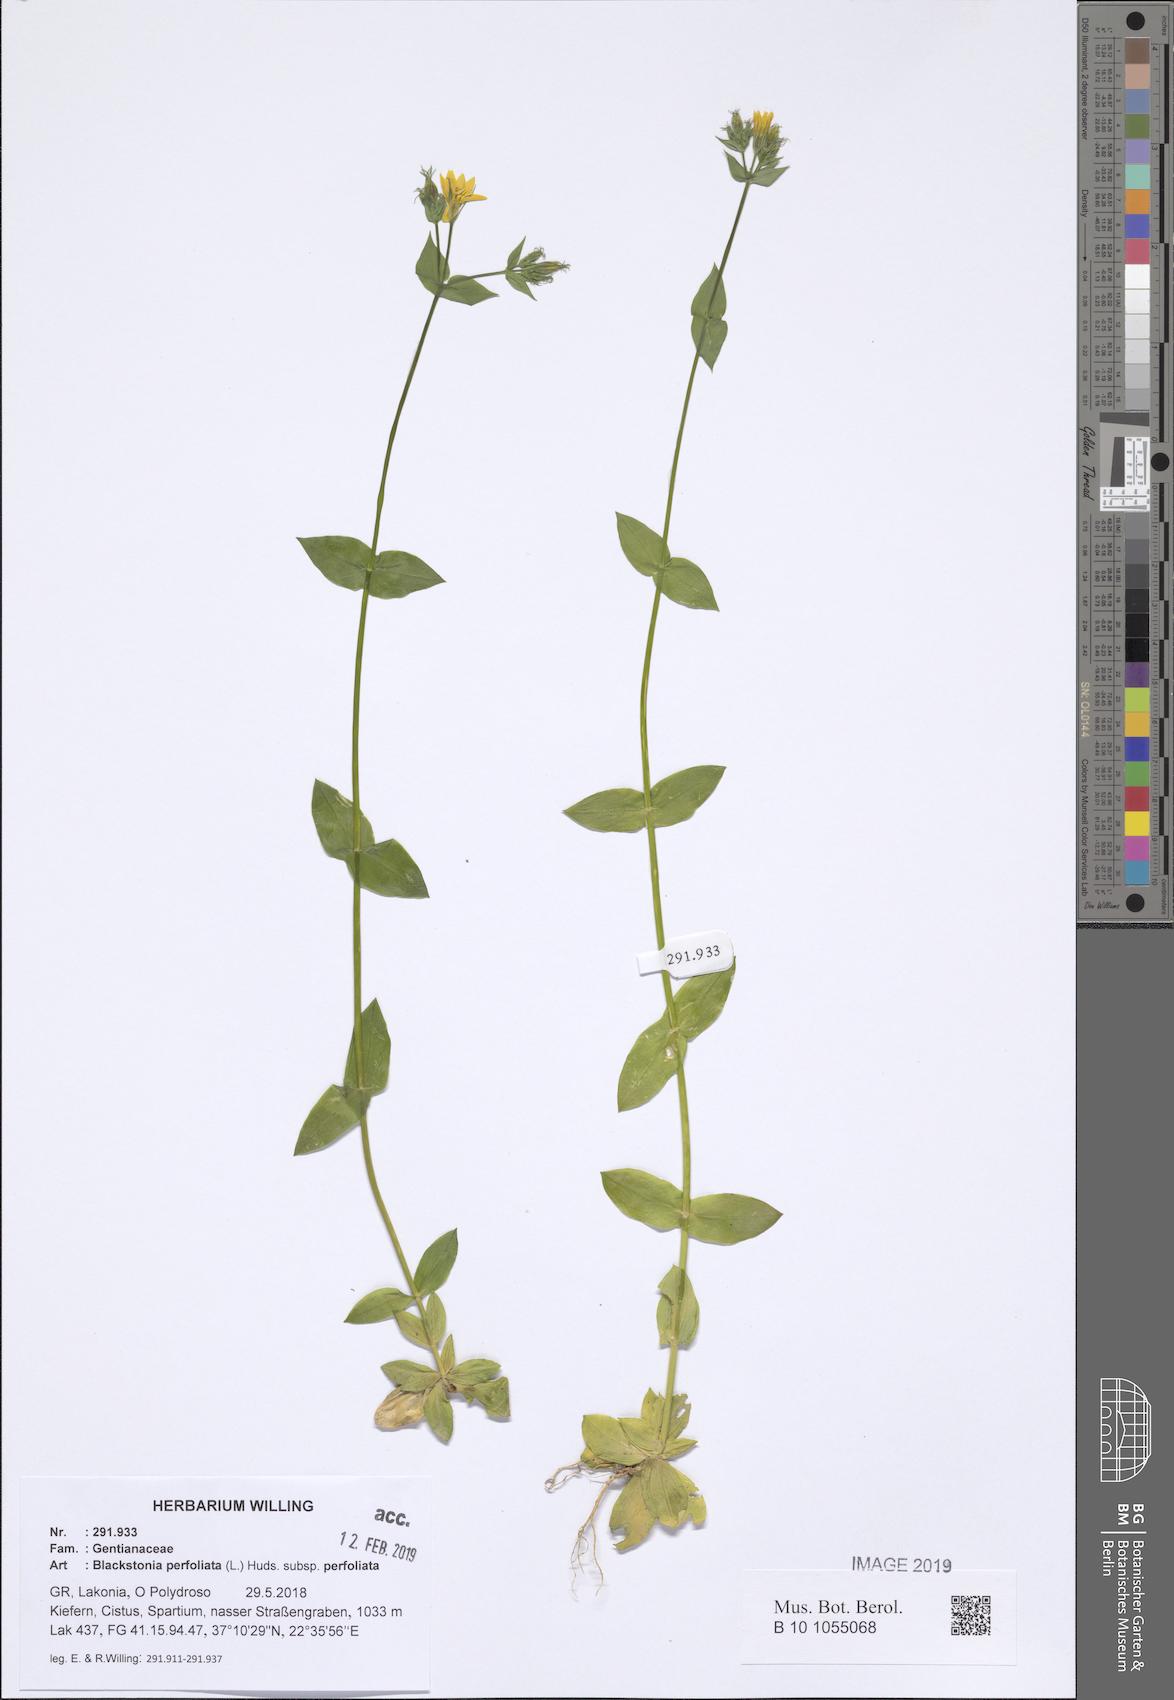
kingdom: Plantae
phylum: Tracheophyta
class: Magnoliopsida
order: Gentianales
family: Gentianaceae
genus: Blackstonia
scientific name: Blackstonia perfoliata
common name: Yellow-wort
